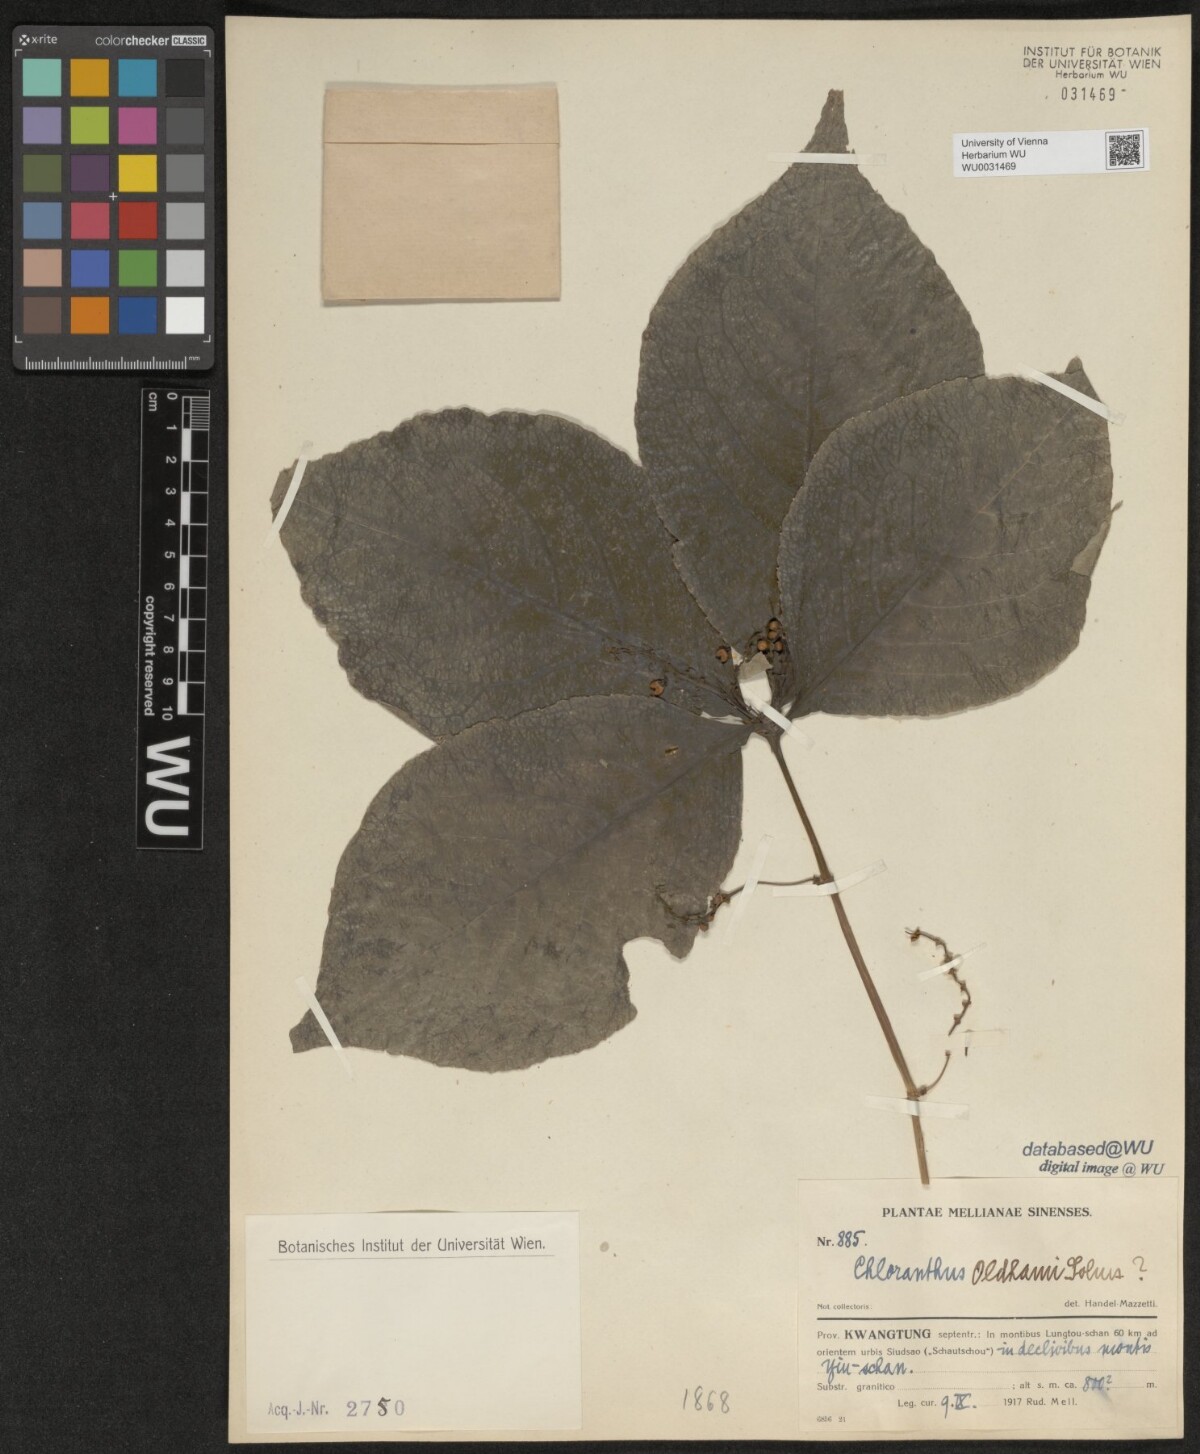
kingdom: Plantae
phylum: Tracheophyta
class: Magnoliopsida
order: Chloranthales
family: Chloranthaceae
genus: Chloranthus
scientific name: Chloranthus oldhamii
